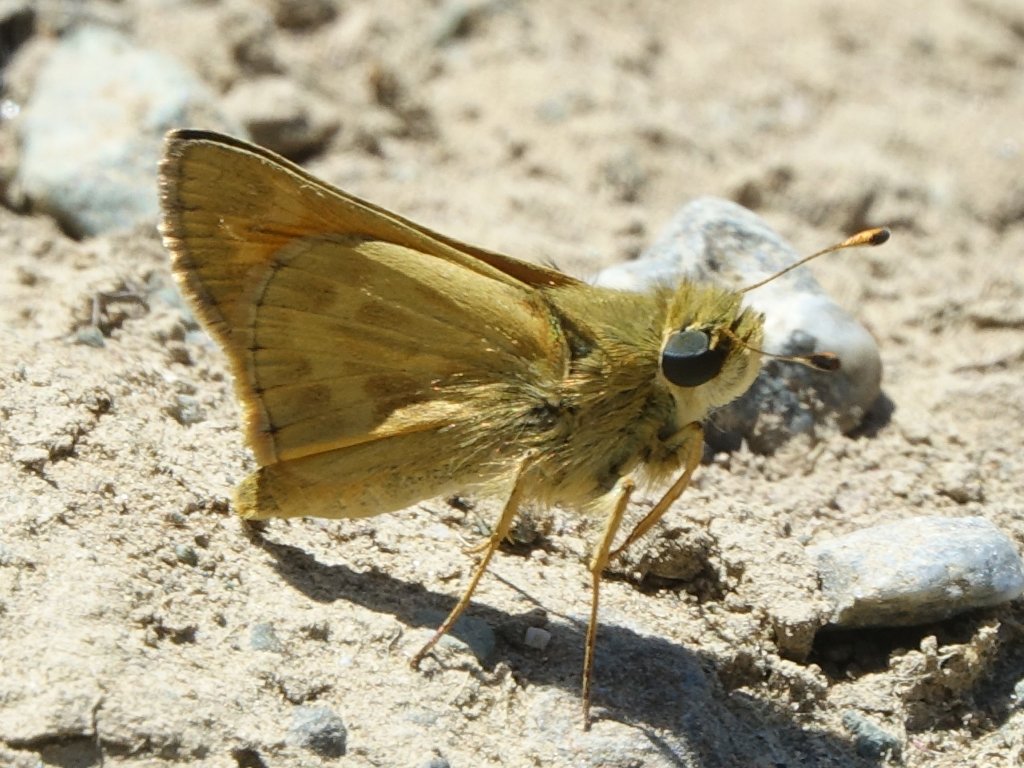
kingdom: Animalia
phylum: Arthropoda
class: Insecta
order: Lepidoptera
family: Hesperiidae
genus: Atalopedes
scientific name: Atalopedes campestris
